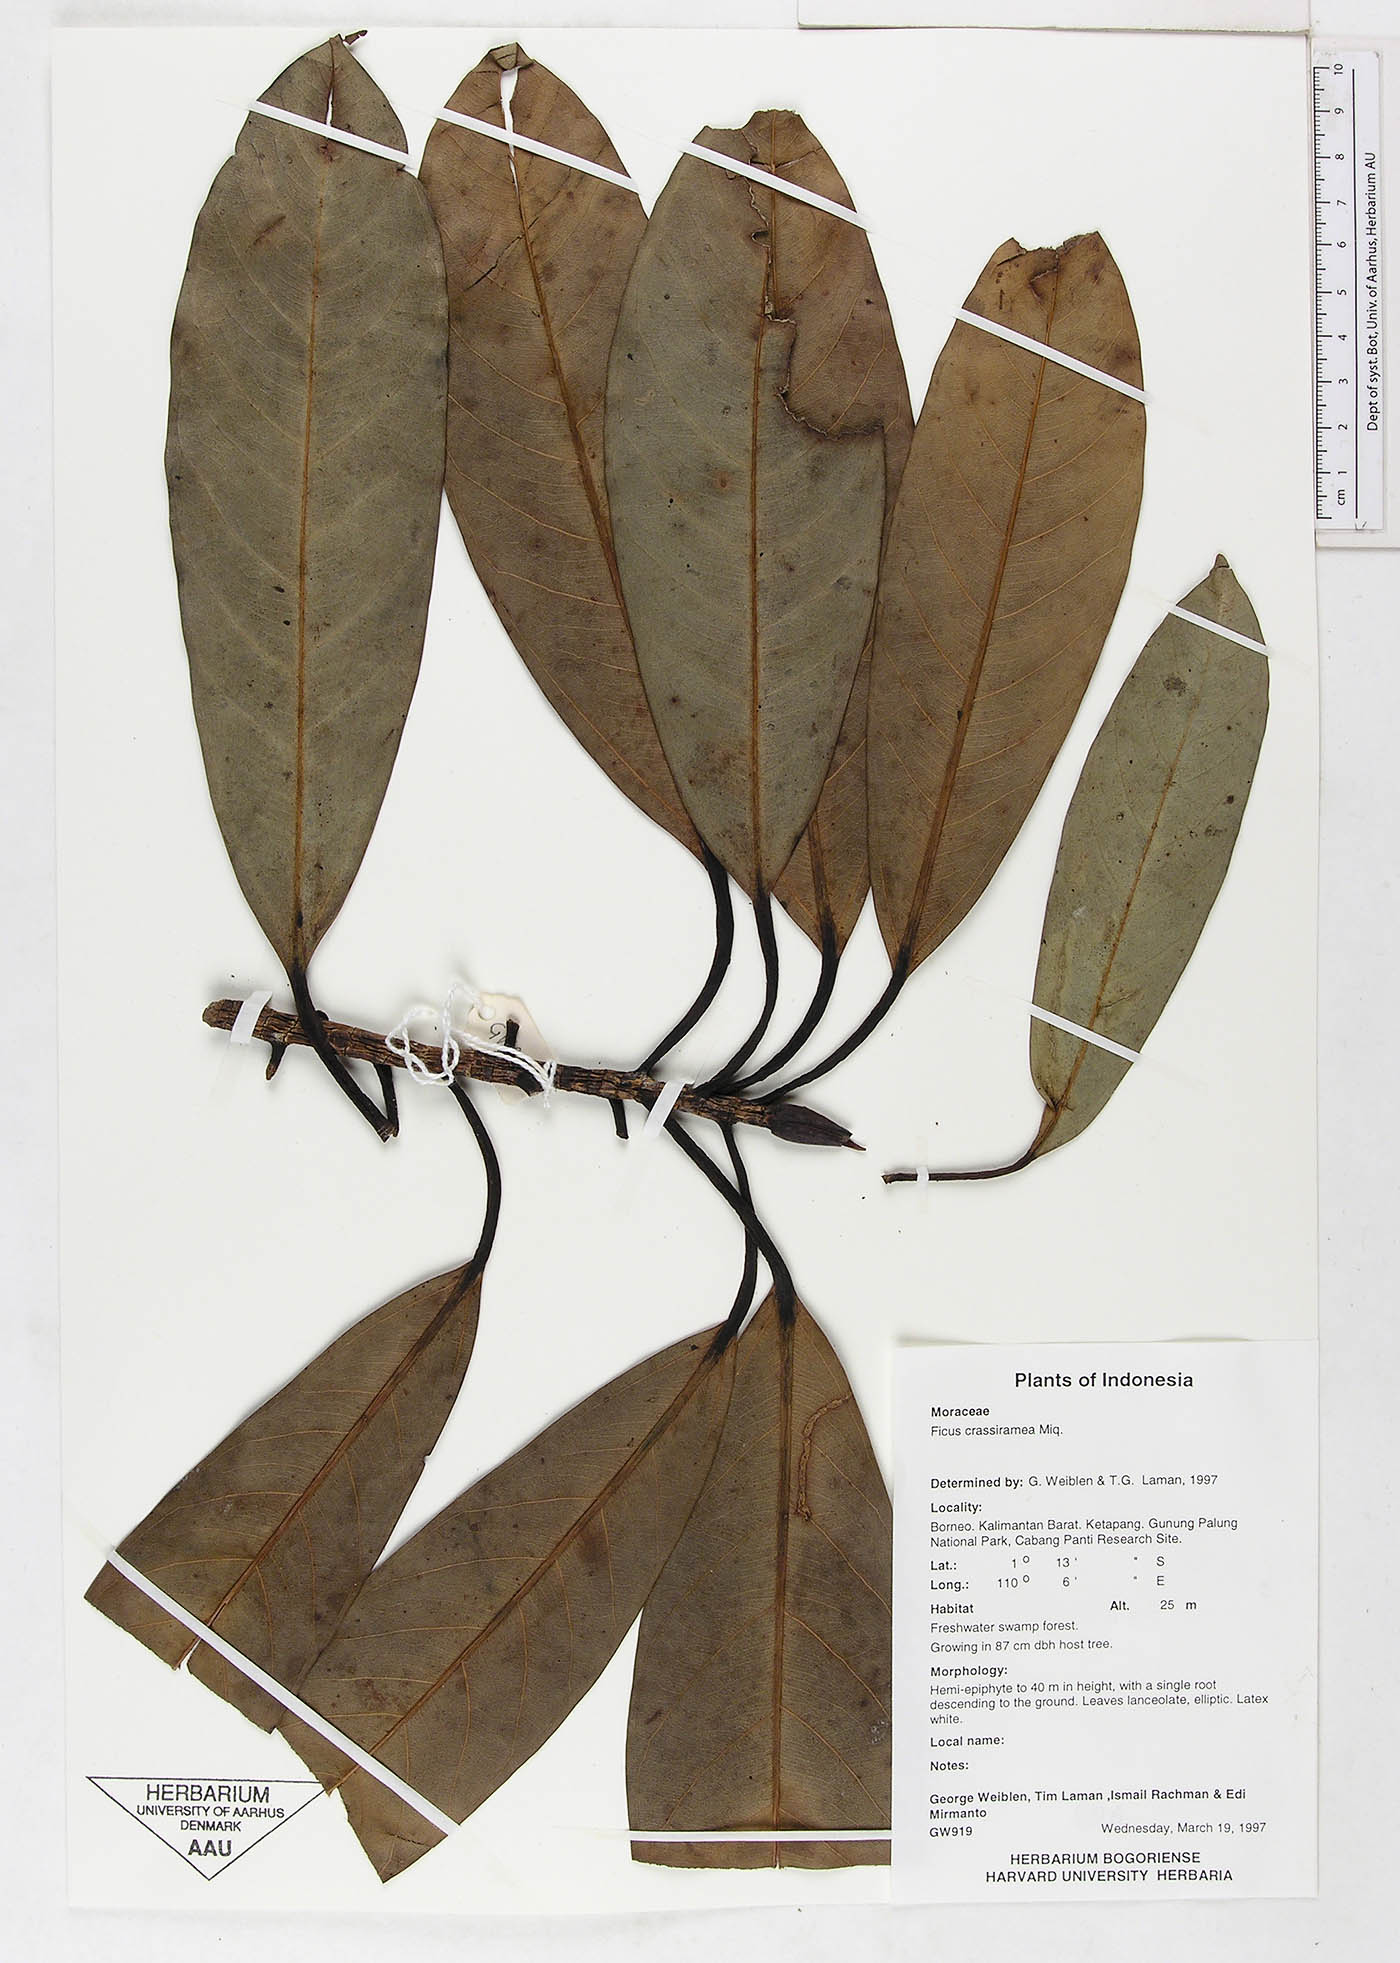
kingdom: Plantae
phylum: Tracheophyta
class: Magnoliopsida
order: Rosales
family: Moraceae
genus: Ficus
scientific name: Ficus crassiramea
